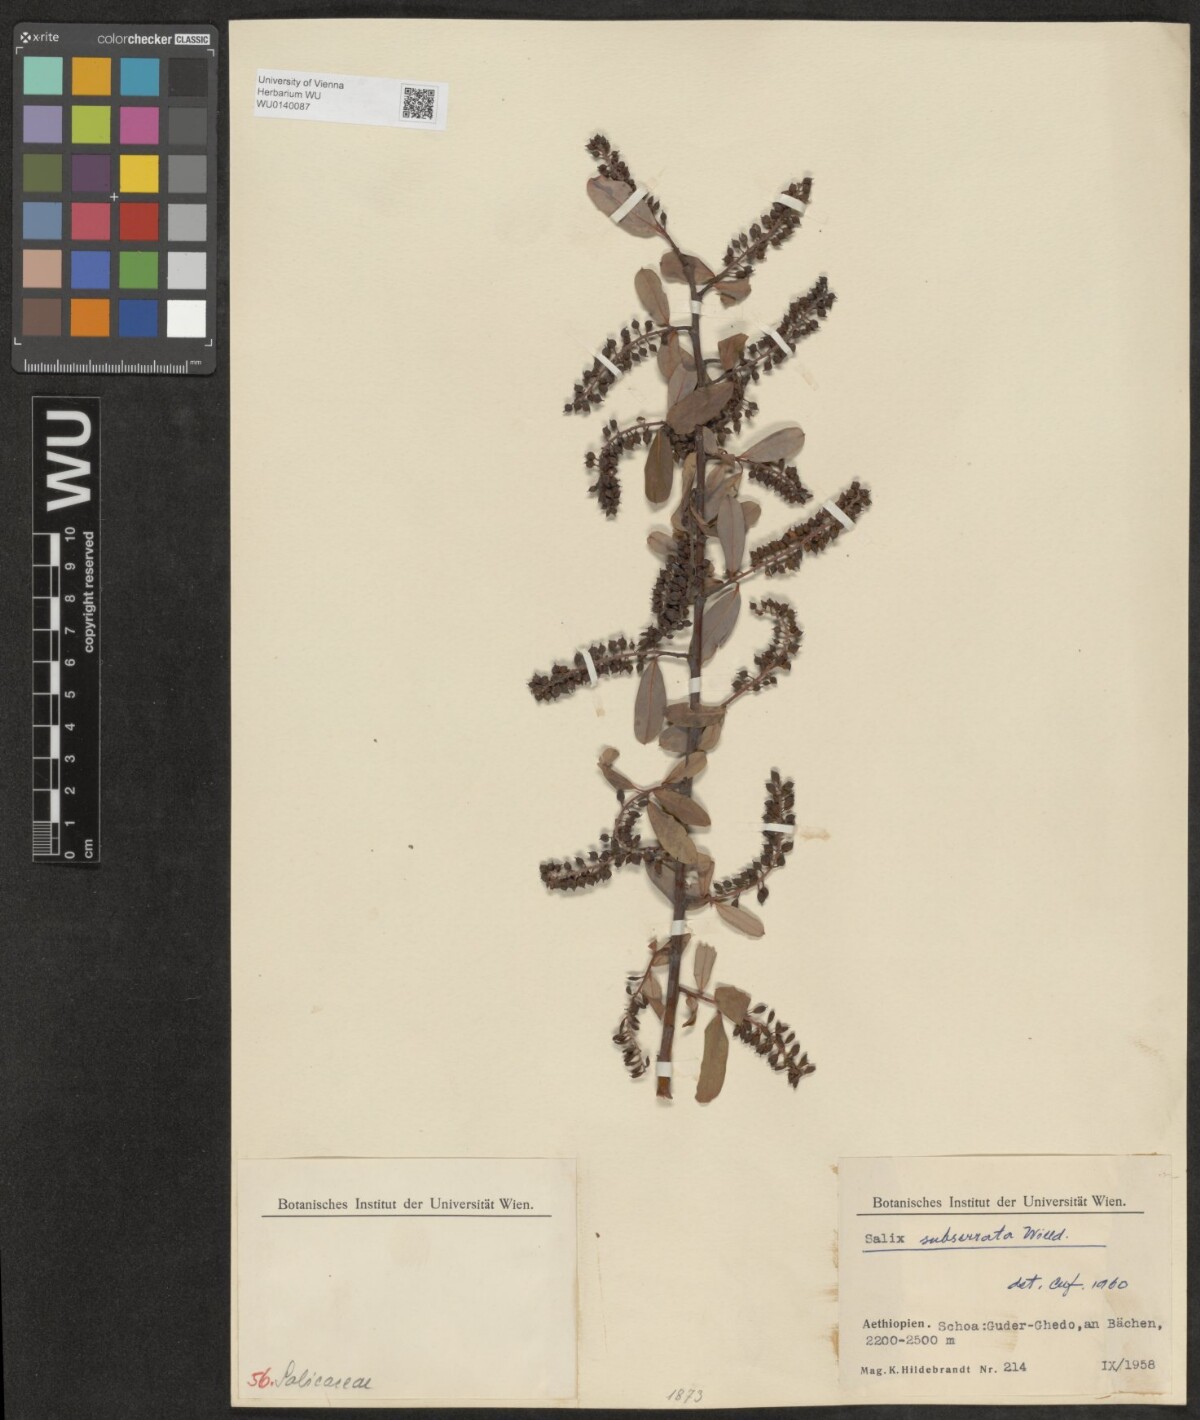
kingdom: Plantae
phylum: Tracheophyta
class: Magnoliopsida
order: Malpighiales
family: Salicaceae
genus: Salix
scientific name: Salix mucronata
